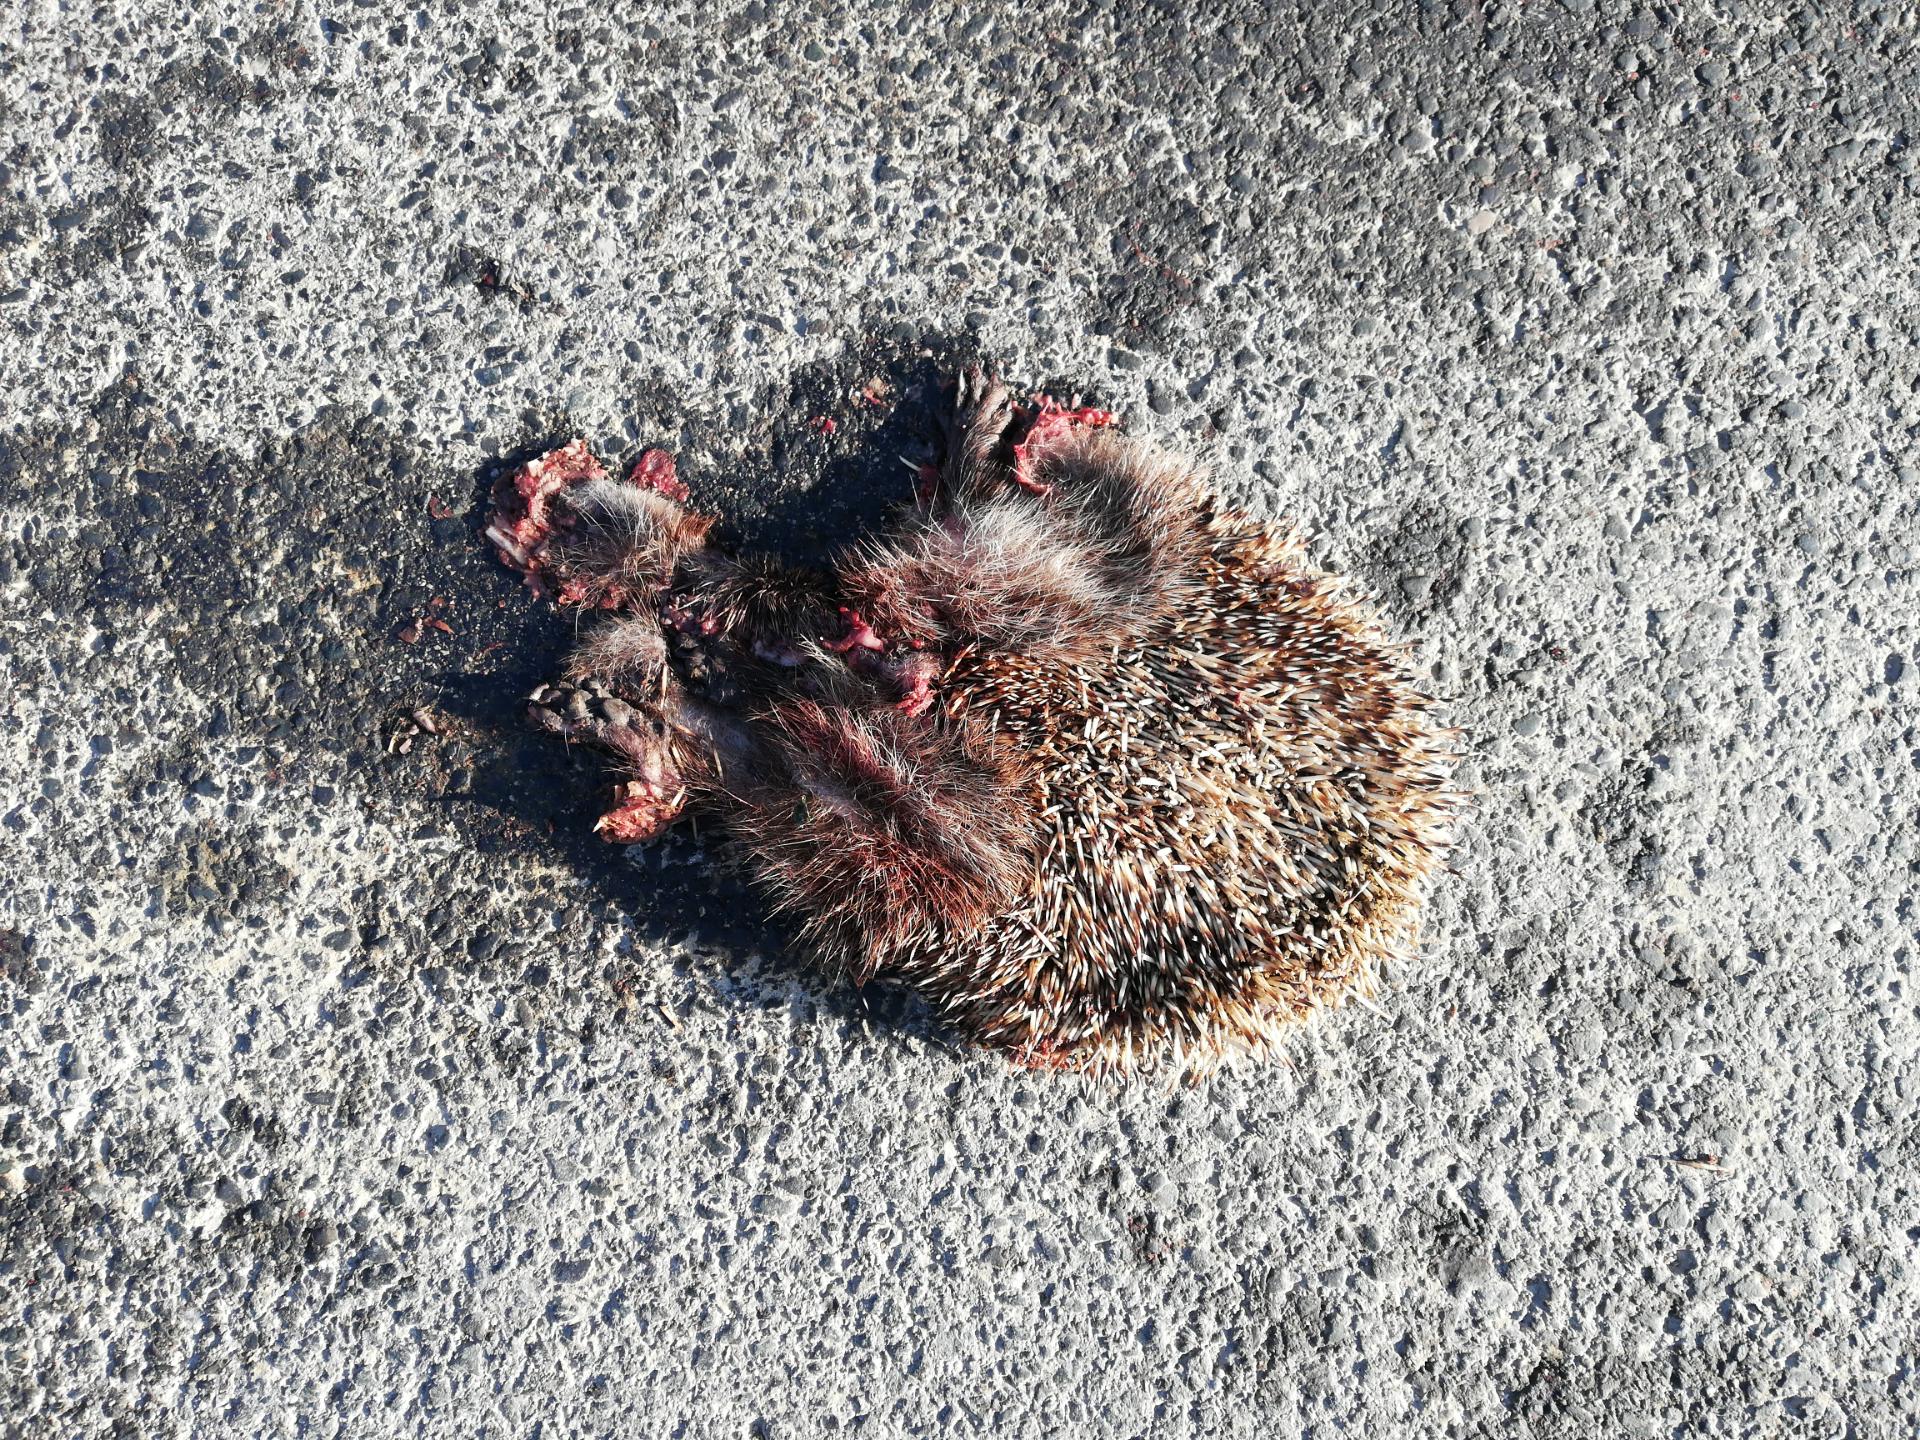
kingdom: Animalia
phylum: Chordata
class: Mammalia
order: Erinaceomorpha
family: Erinaceidae
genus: Erinaceus
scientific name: Erinaceus
